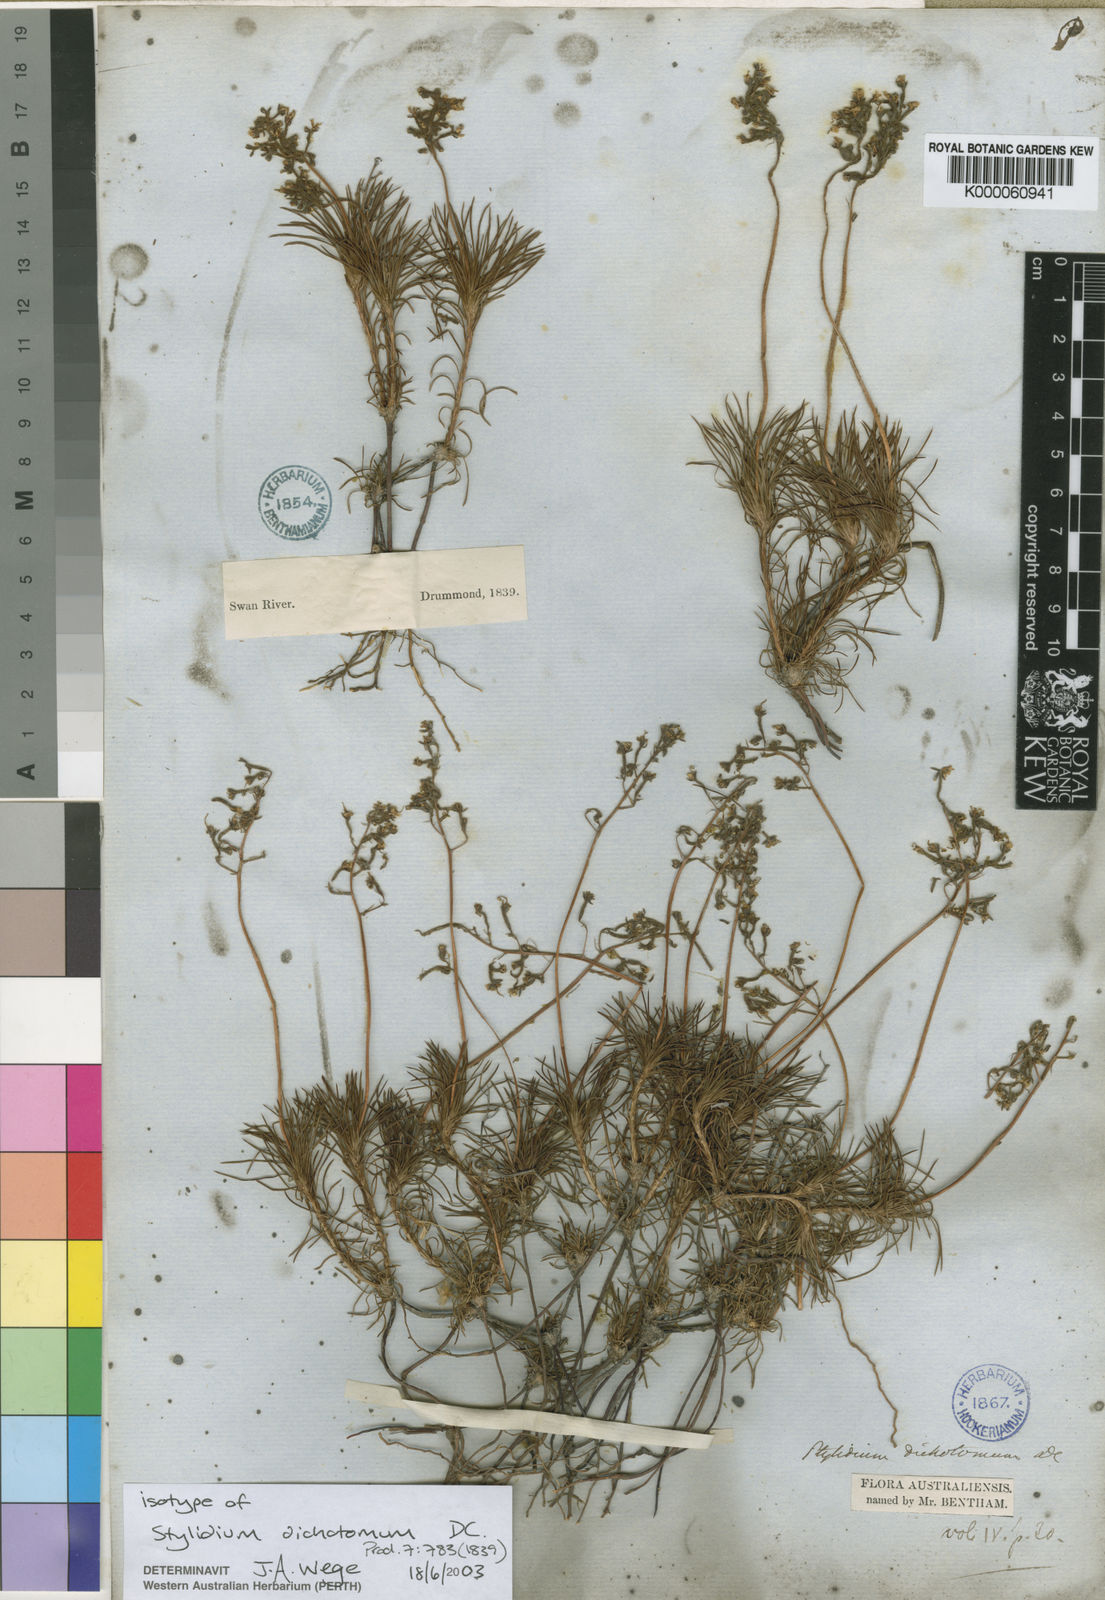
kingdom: Plantae
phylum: Tracheophyta
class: Magnoliopsida
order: Asterales
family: Stylidiaceae
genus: Stylidium
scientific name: Stylidium dichotomum
